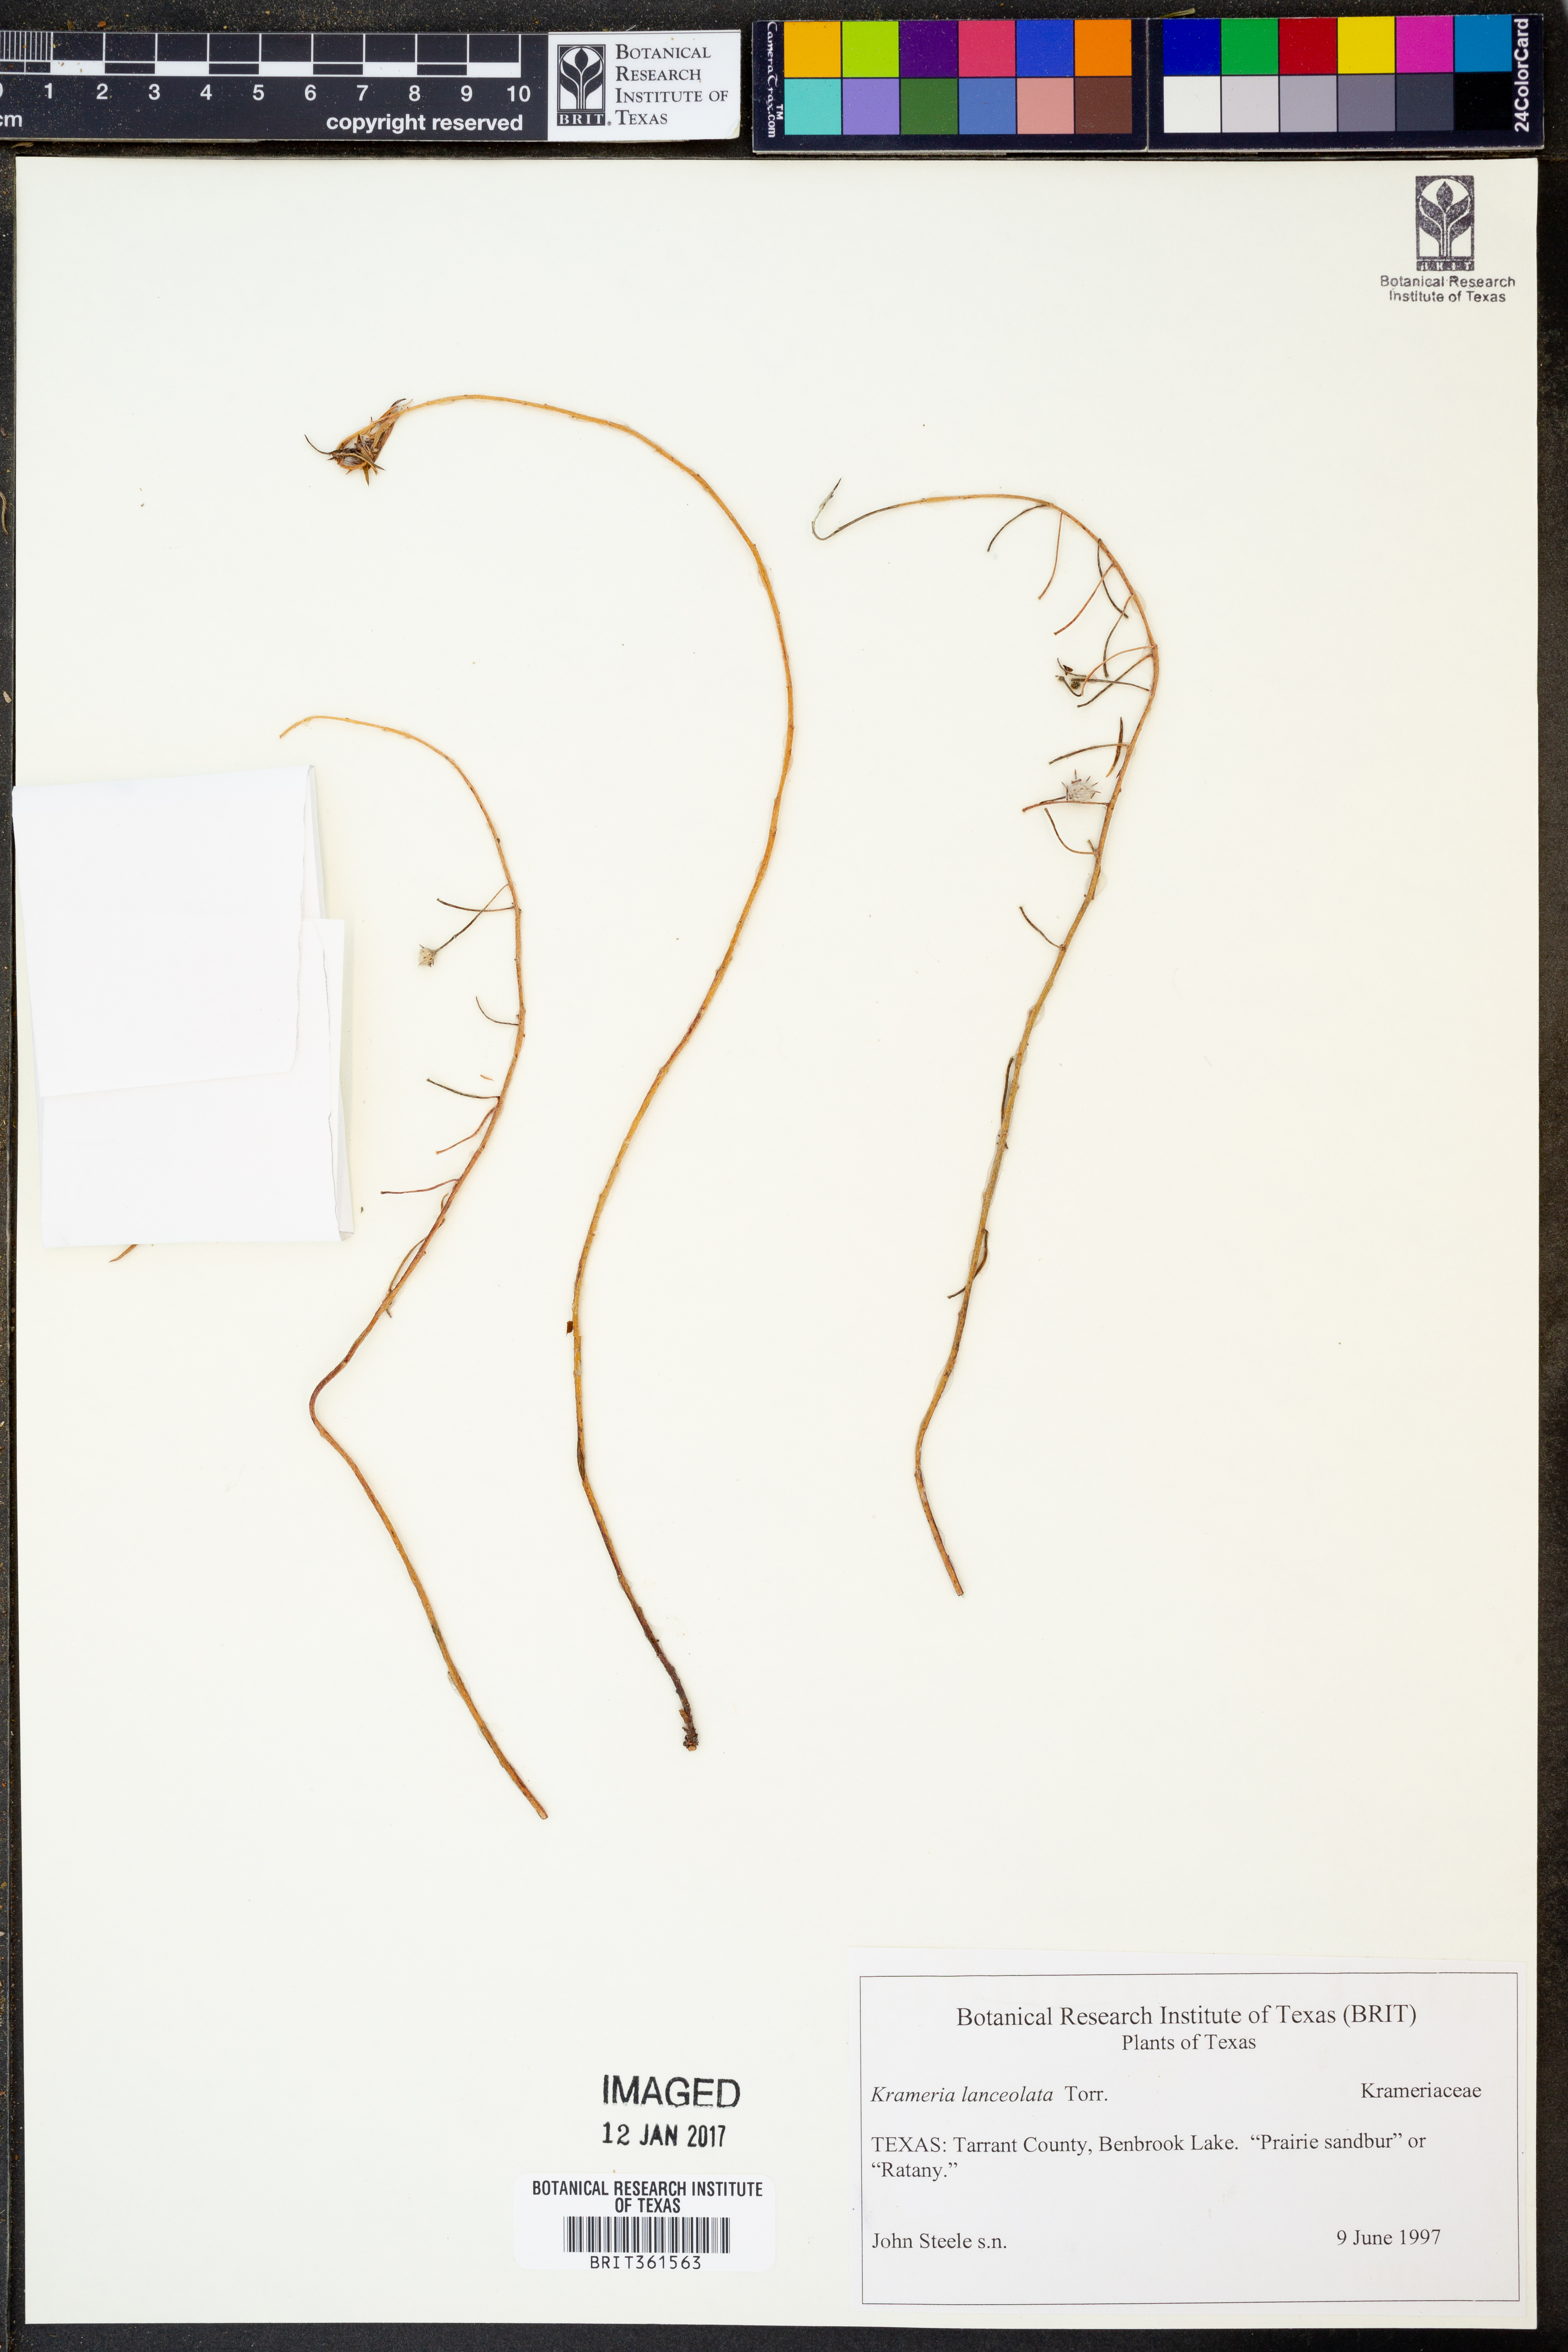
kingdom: Plantae
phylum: Tracheophyta
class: Magnoliopsida
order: Zygophyllales
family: Krameriaceae
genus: Krameria
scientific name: Krameria lanceolata
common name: Ratany
